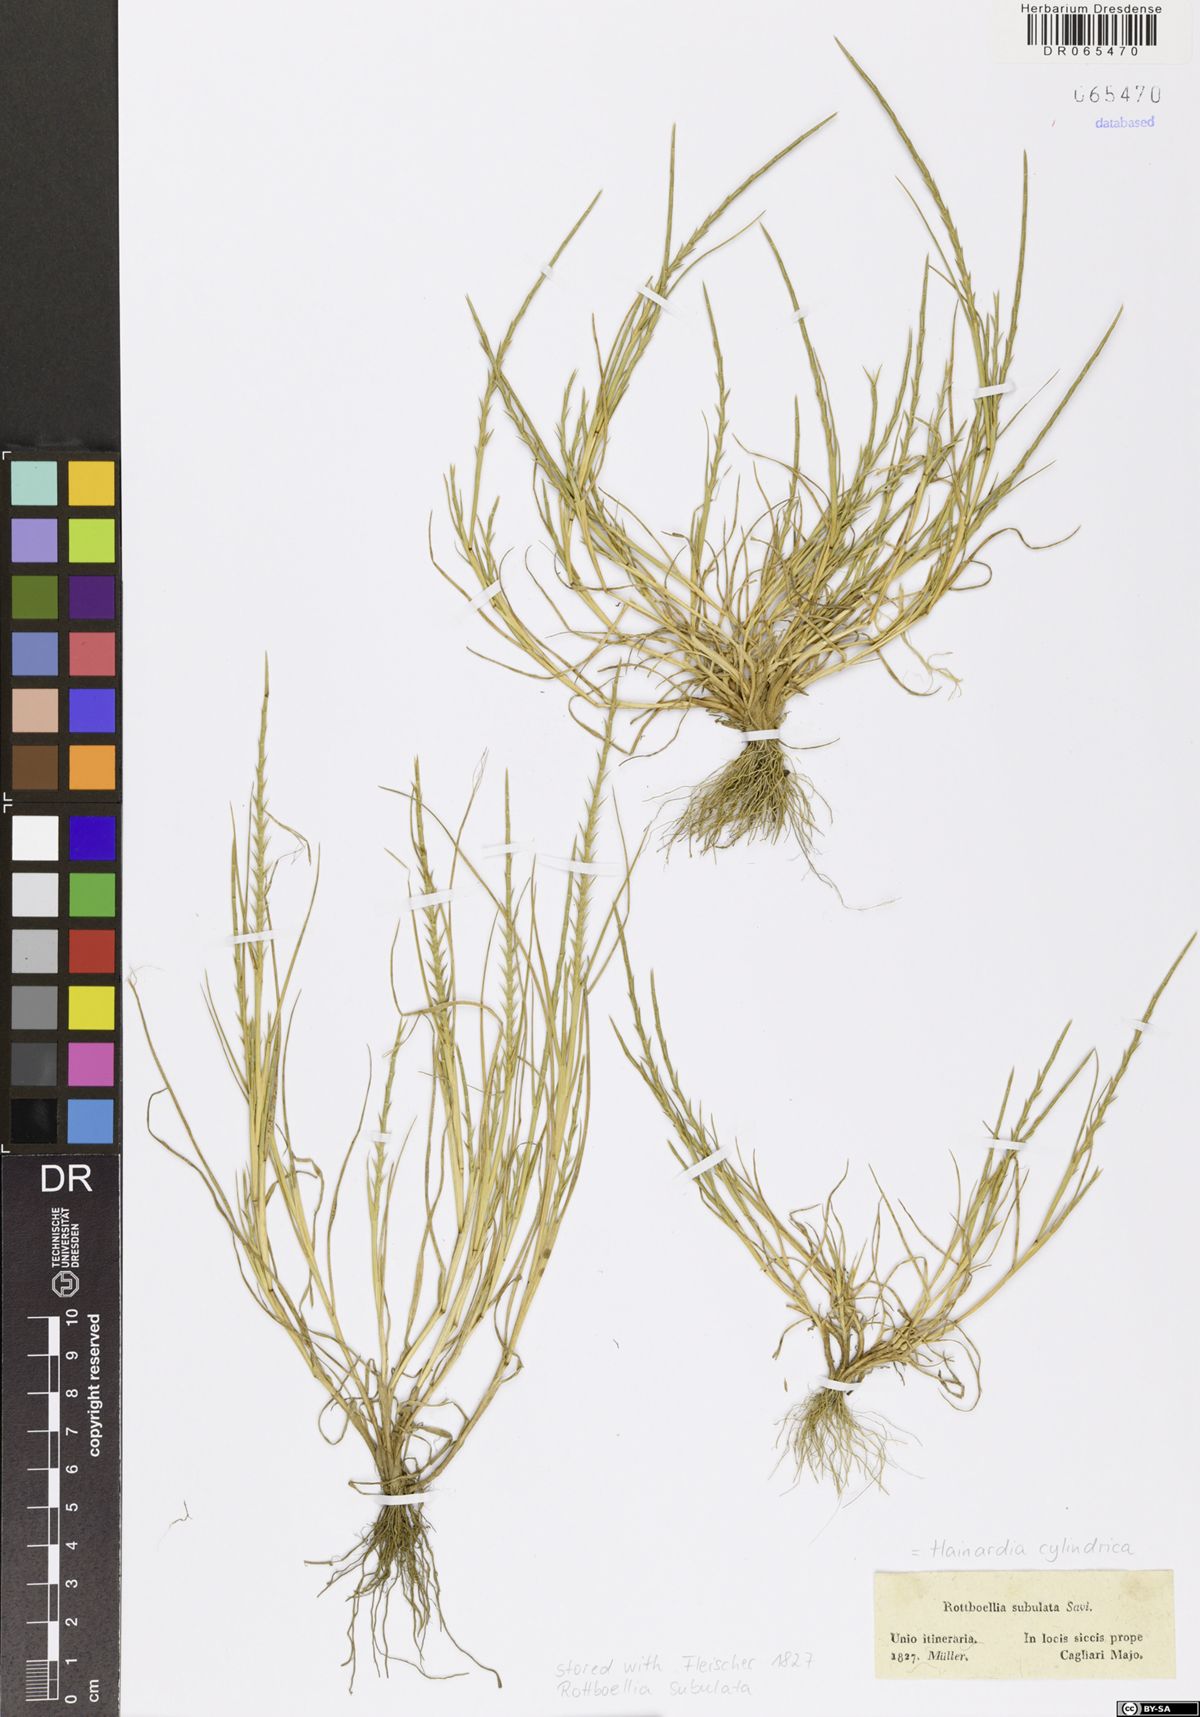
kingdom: Plantae
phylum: Tracheophyta
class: Liliopsida
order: Poales
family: Poaceae
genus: Parapholis
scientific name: Parapholis cylindrica
